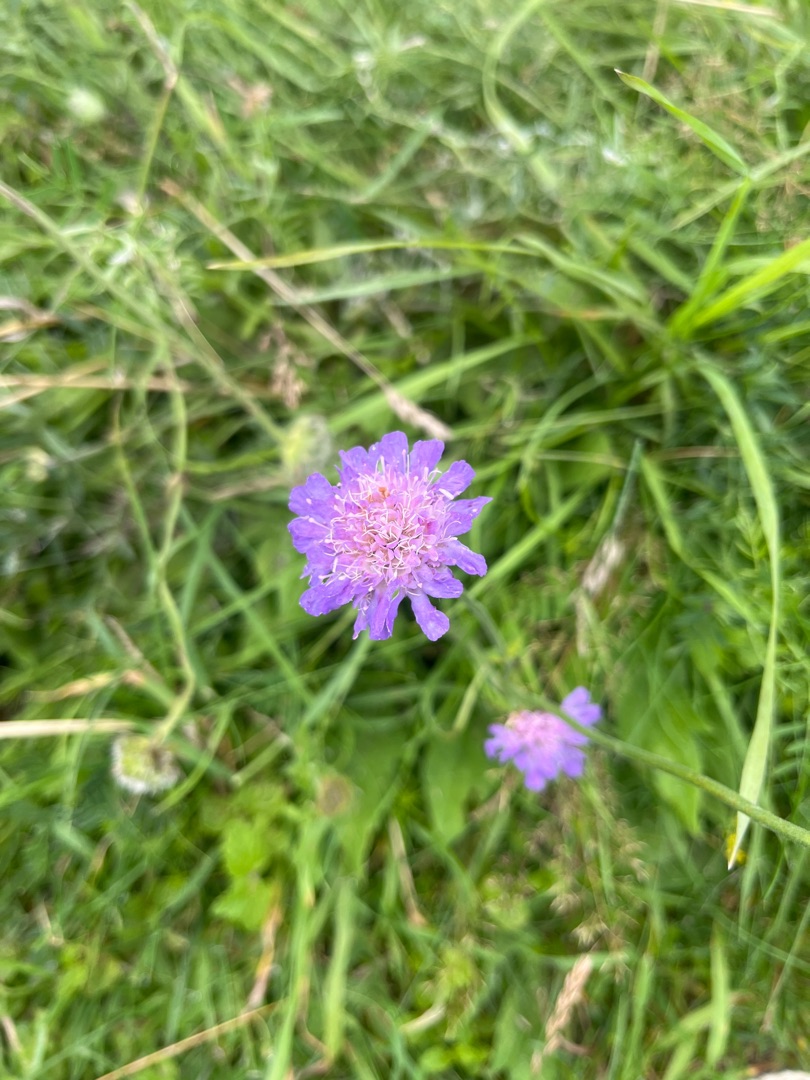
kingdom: Plantae
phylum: Tracheophyta
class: Magnoliopsida
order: Dipsacales
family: Caprifoliaceae
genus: Knautia
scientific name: Knautia arvensis
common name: Blåhat
